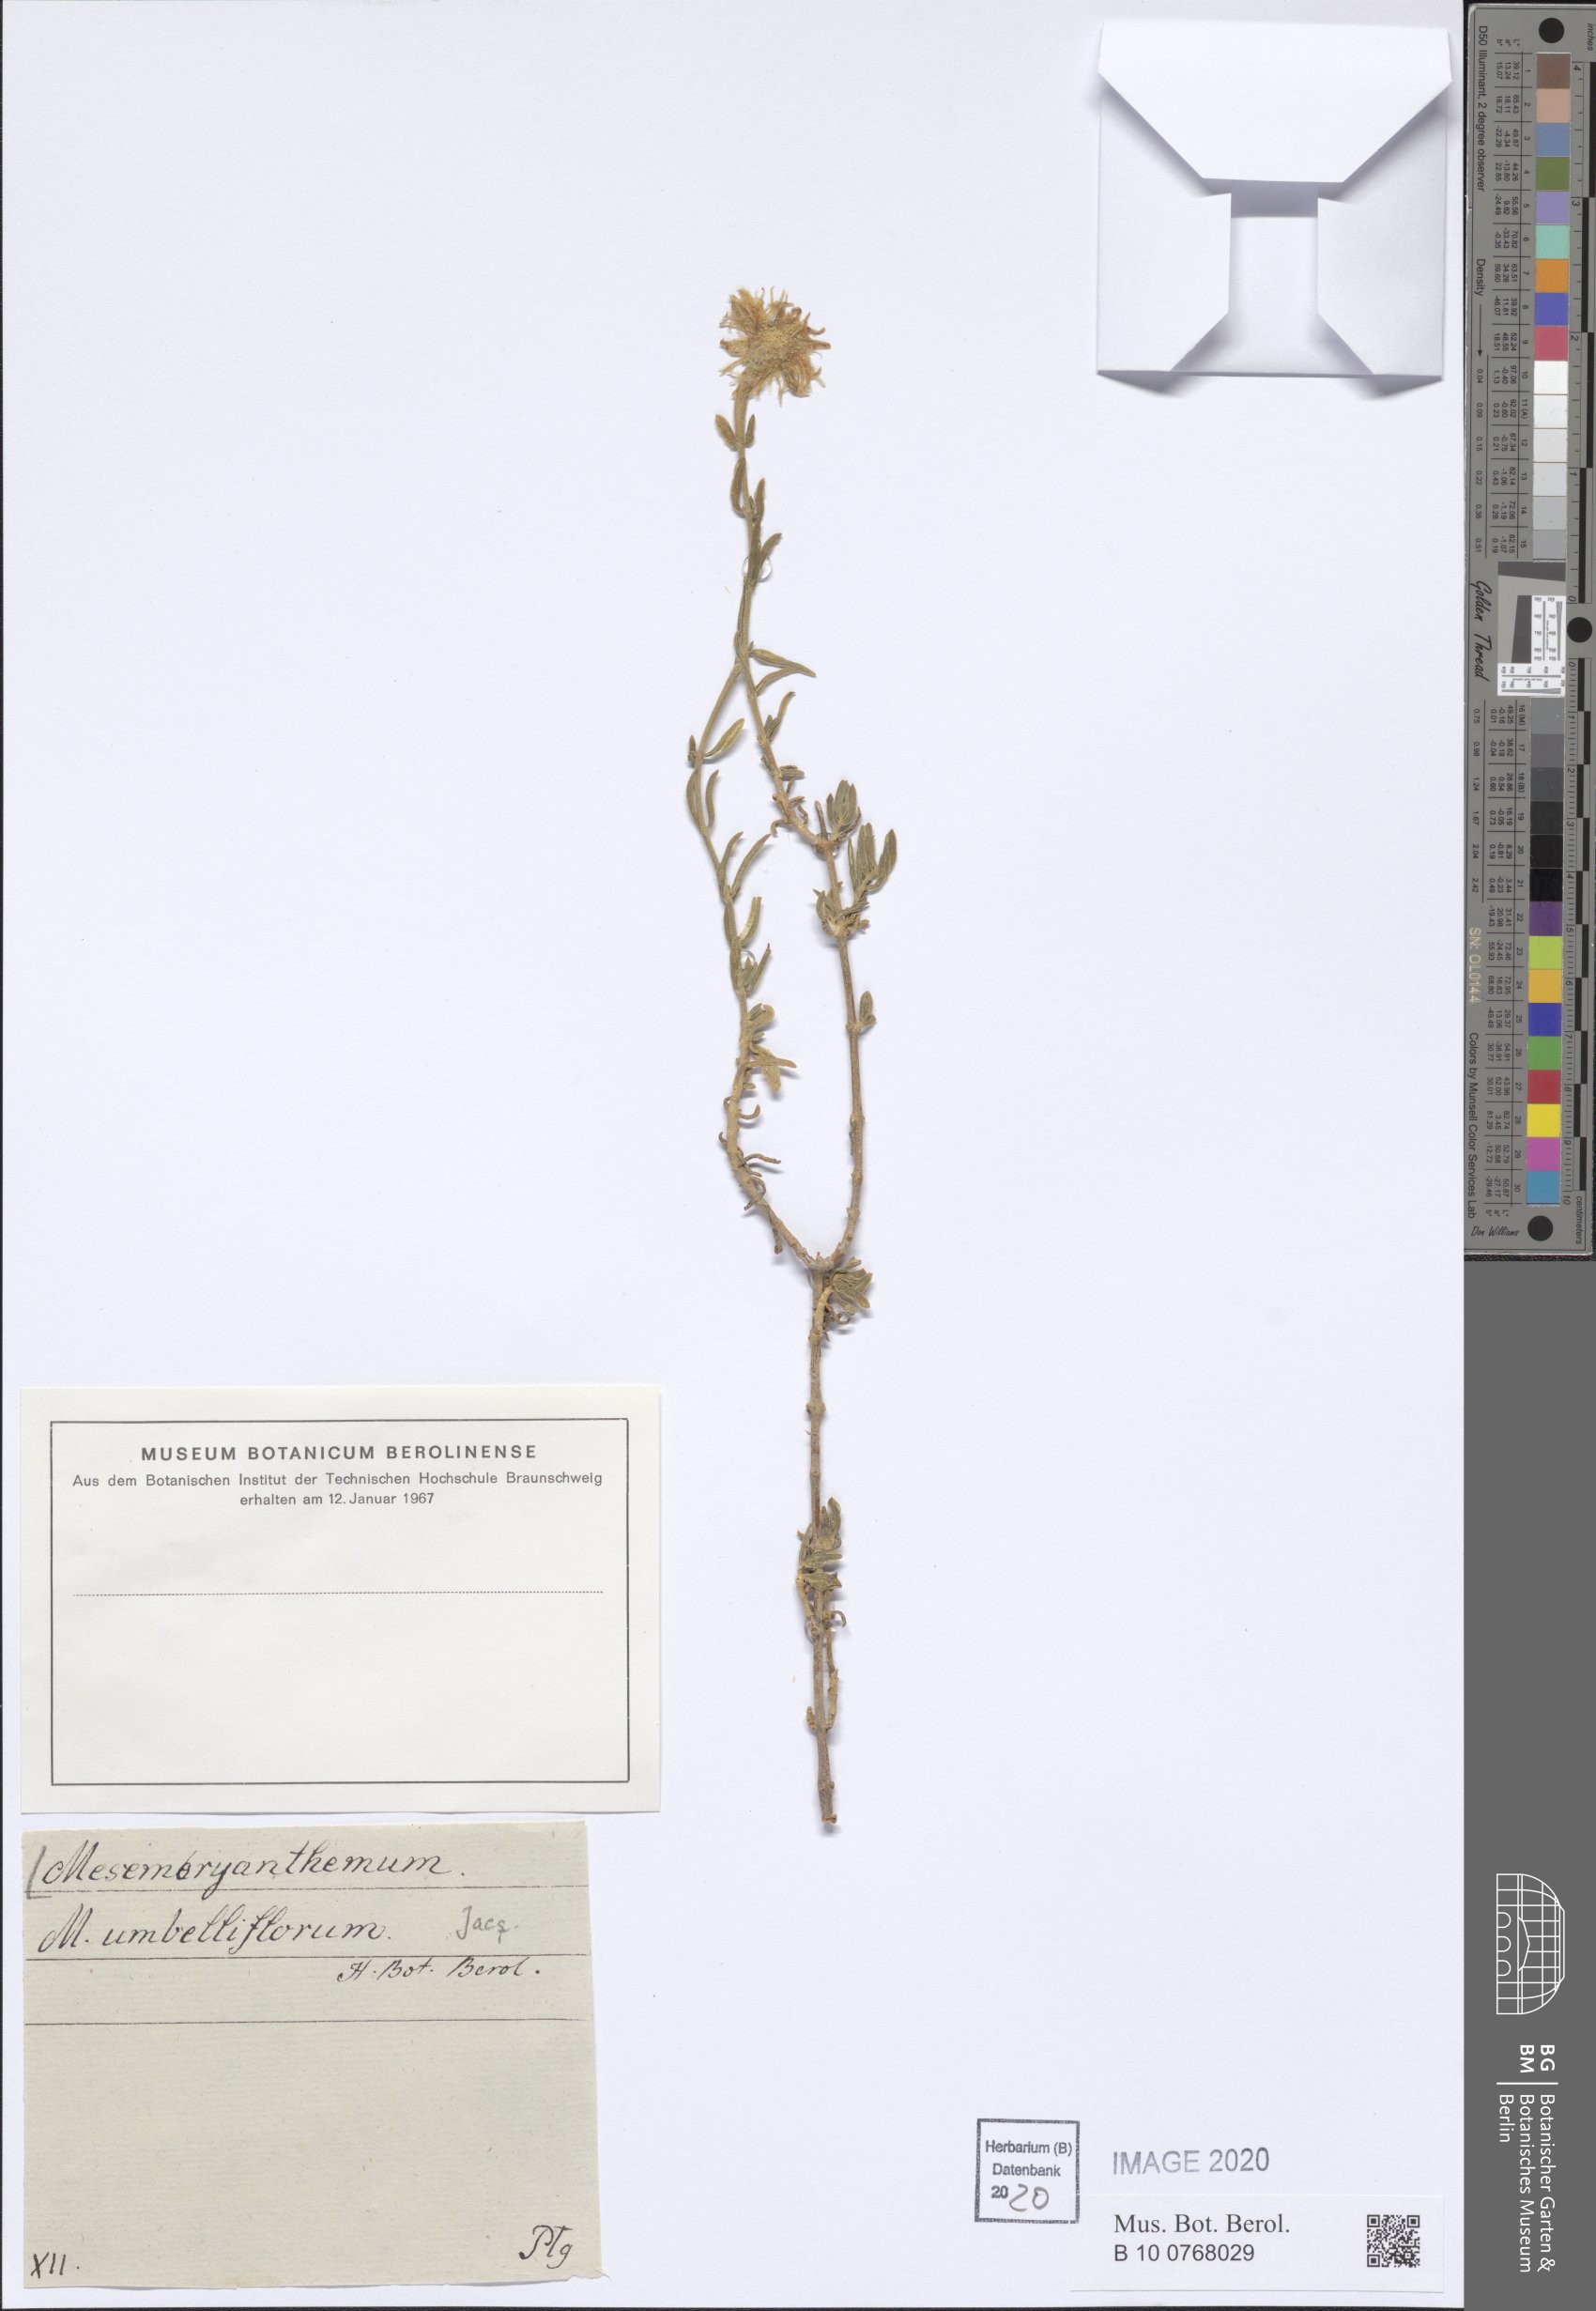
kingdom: Plantae
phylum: Tracheophyta
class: Magnoliopsida
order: Caryophyllales
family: Aizoaceae
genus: Mesembryanthemum
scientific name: Mesembryanthemum splendens
